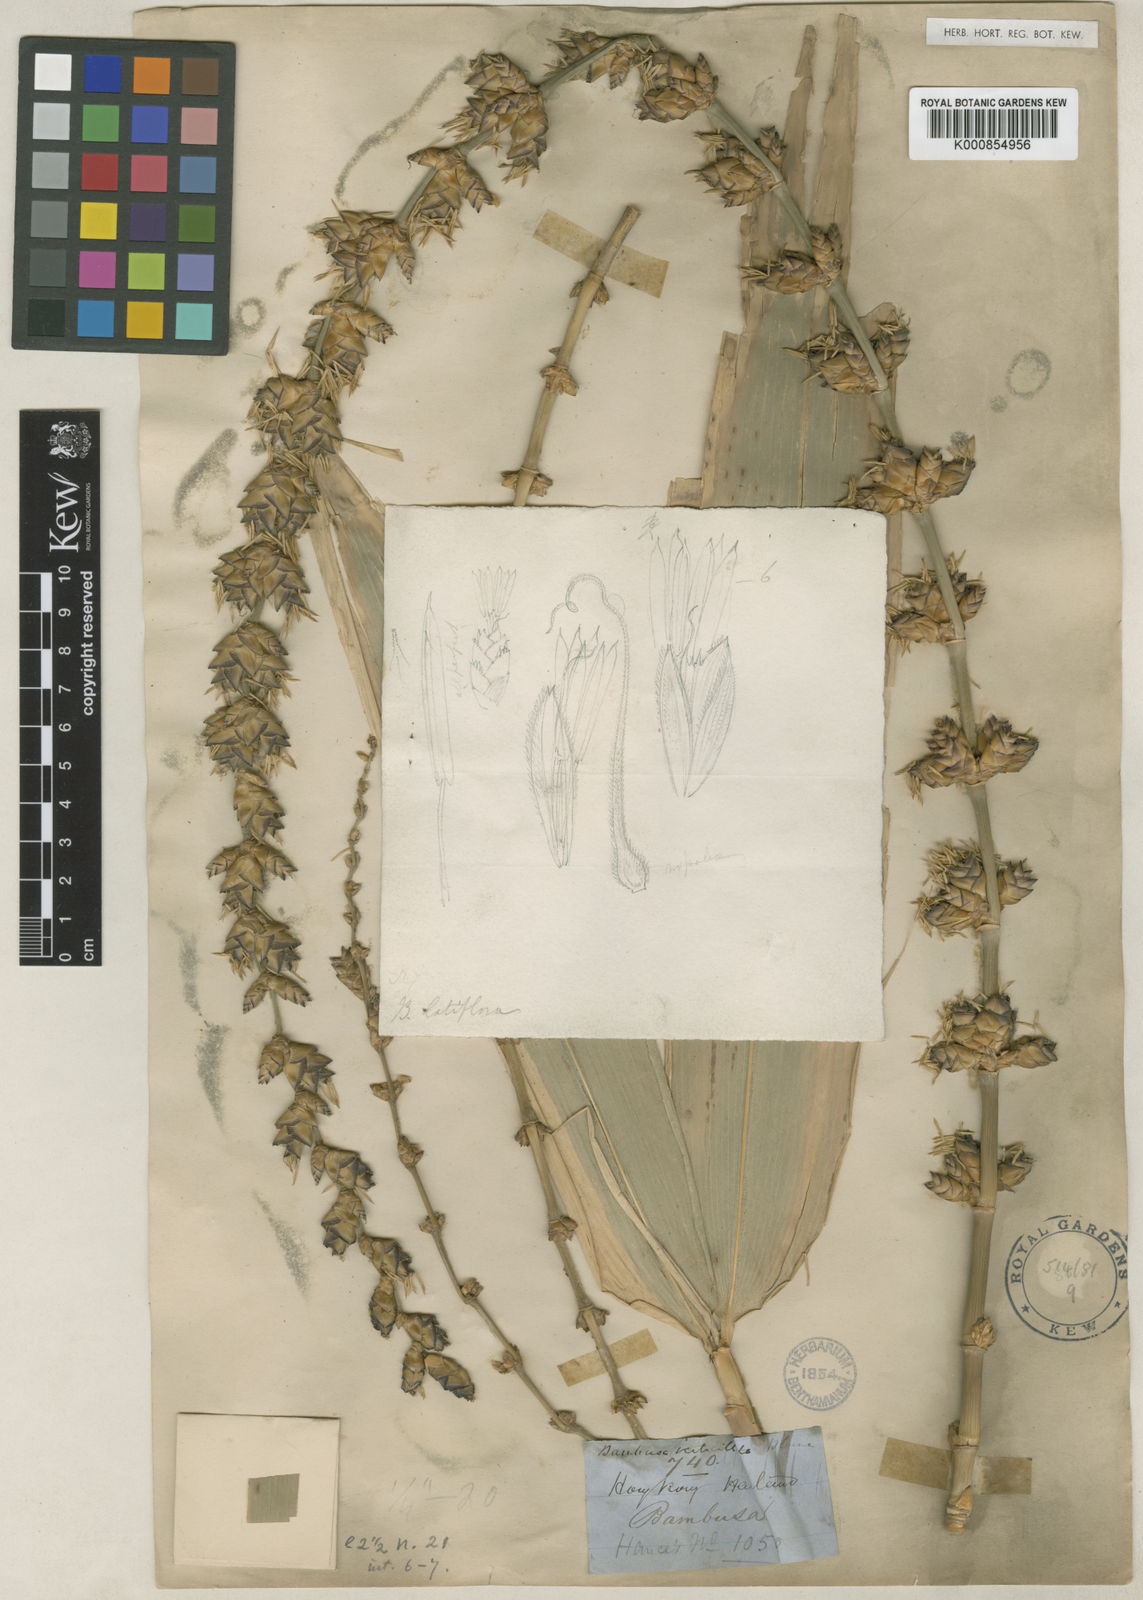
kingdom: Plantae
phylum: Tracheophyta
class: Liliopsida
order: Poales
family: Poaceae
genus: Dendrocalamus
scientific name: Dendrocalamus latiflorus
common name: Giant bamboo
